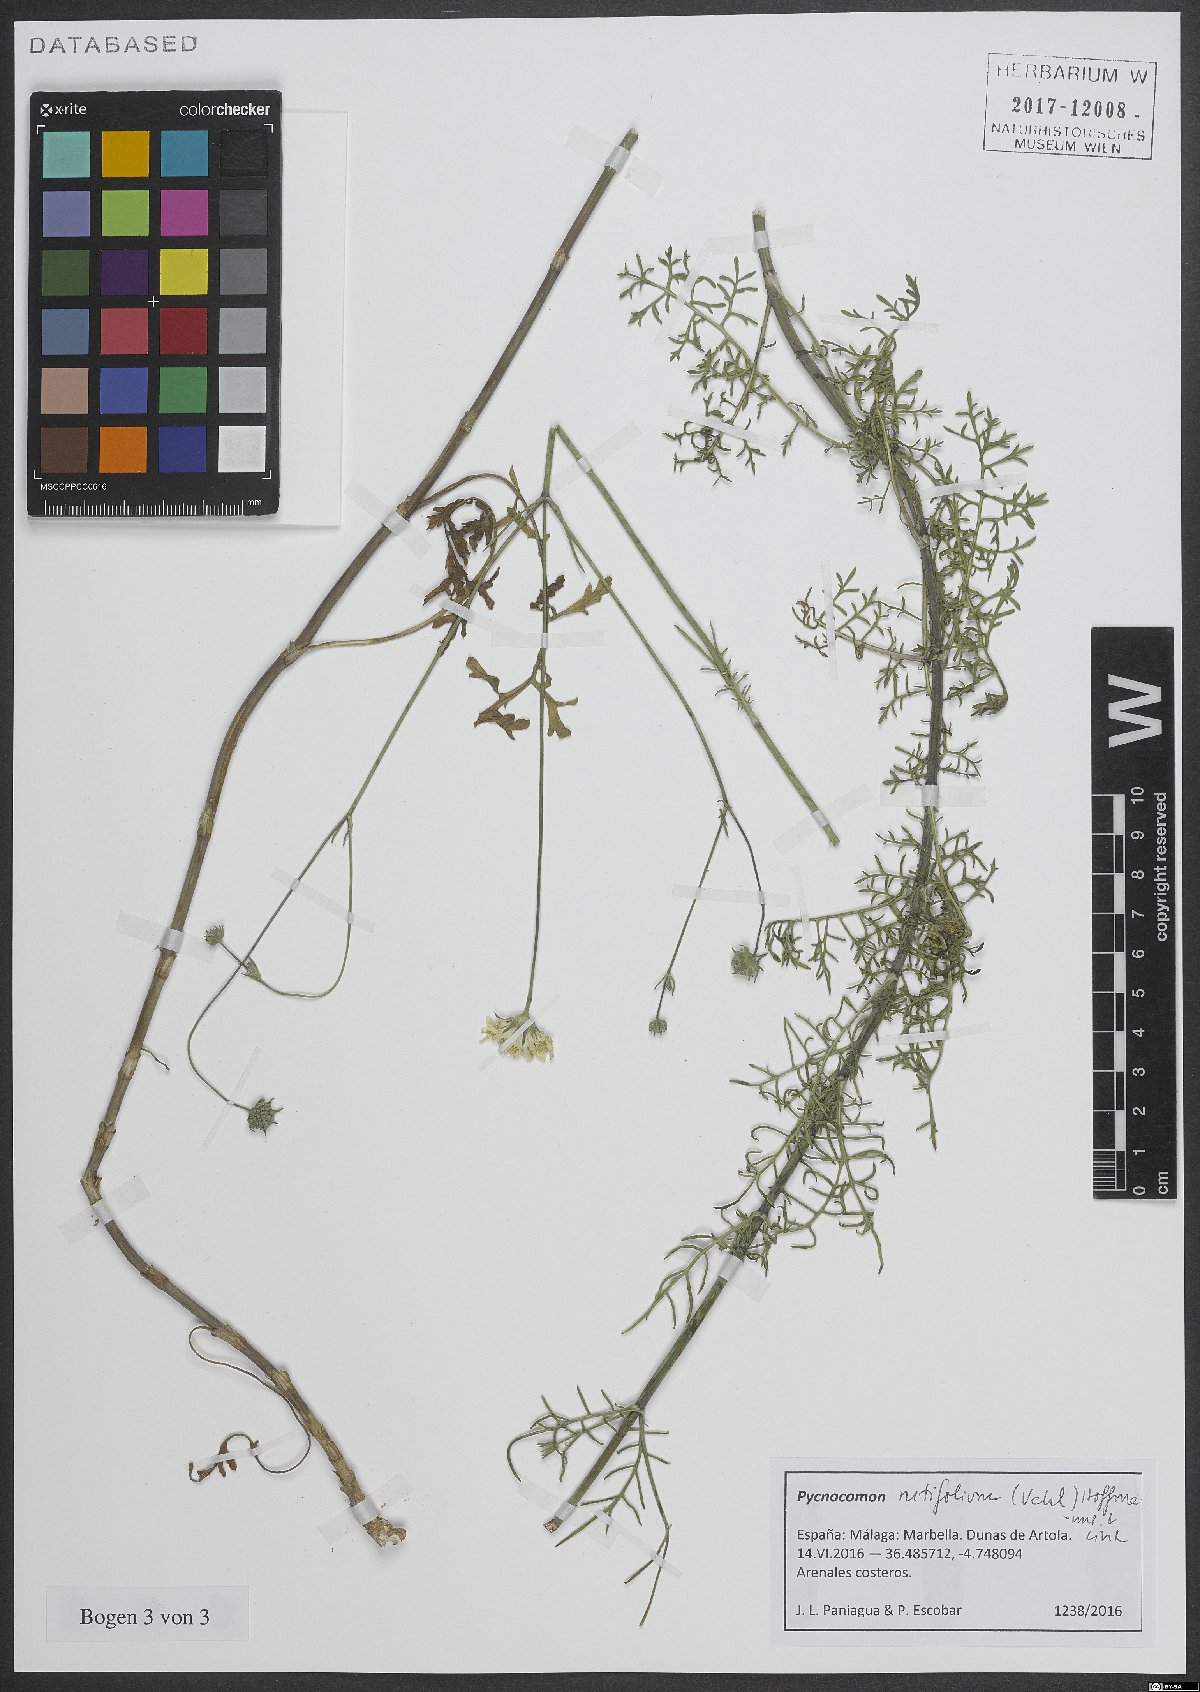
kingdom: Plantae
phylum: Tracheophyta
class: Magnoliopsida
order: Dipsacales
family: Caprifoliaceae
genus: Pycnocomon
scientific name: Pycnocomon rutifolium
